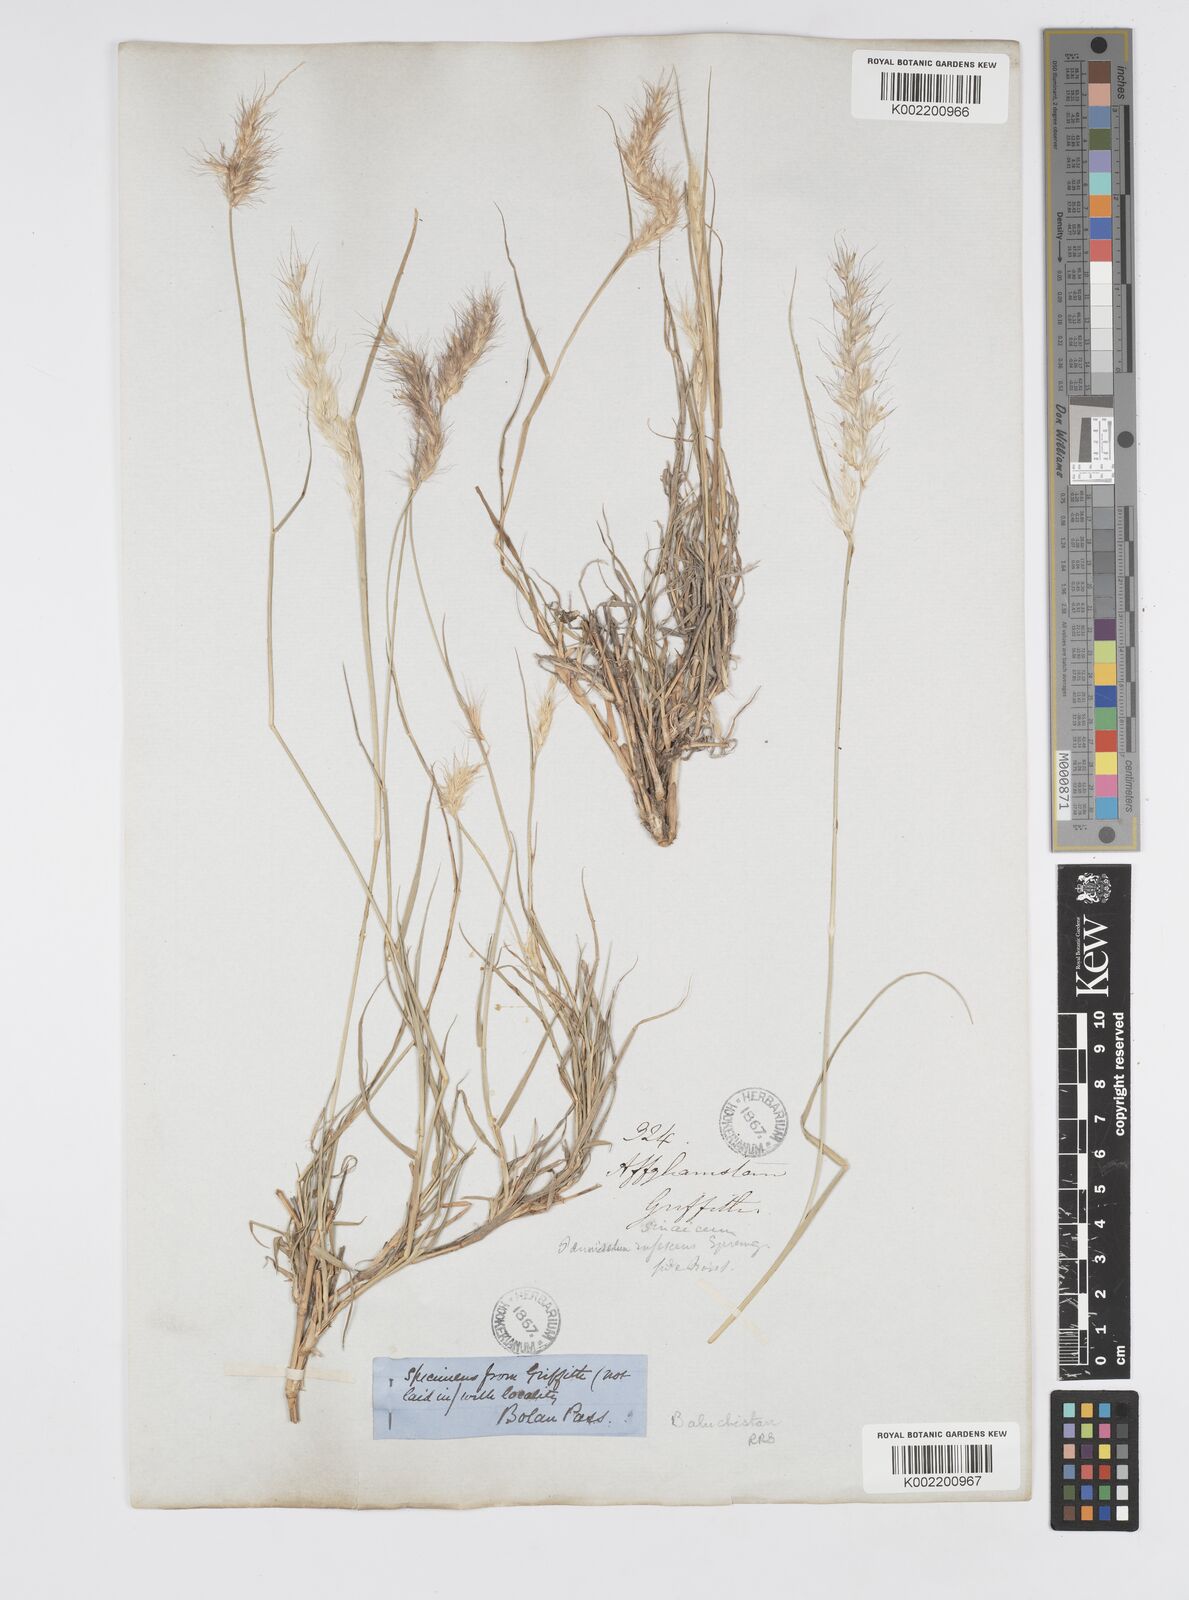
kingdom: Plantae
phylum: Tracheophyta
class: Liliopsida
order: Poales
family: Poaceae
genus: Cenchrus
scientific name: Cenchrus orientalis
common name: Oriental fountain grass
